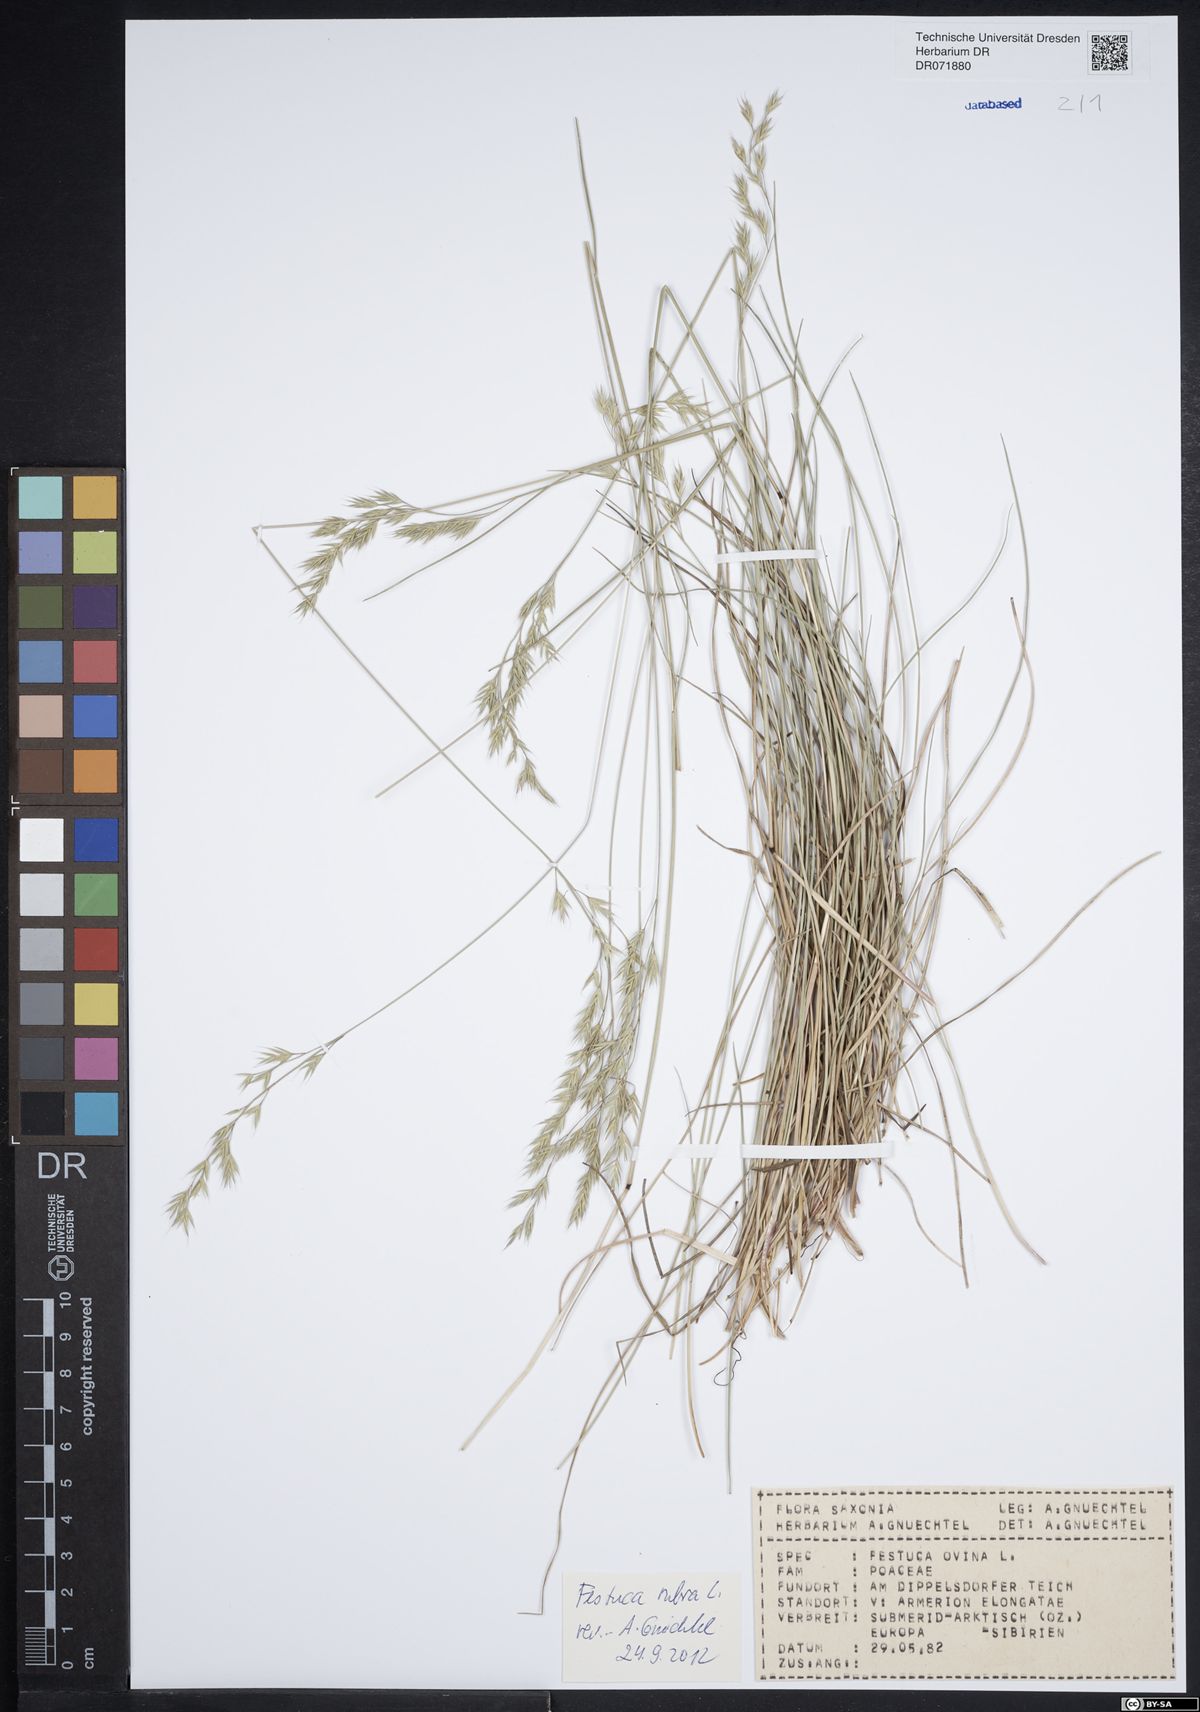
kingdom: Plantae
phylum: Tracheophyta
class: Liliopsida
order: Poales
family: Poaceae
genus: Festuca
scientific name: Festuca rubra
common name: Red fescue
